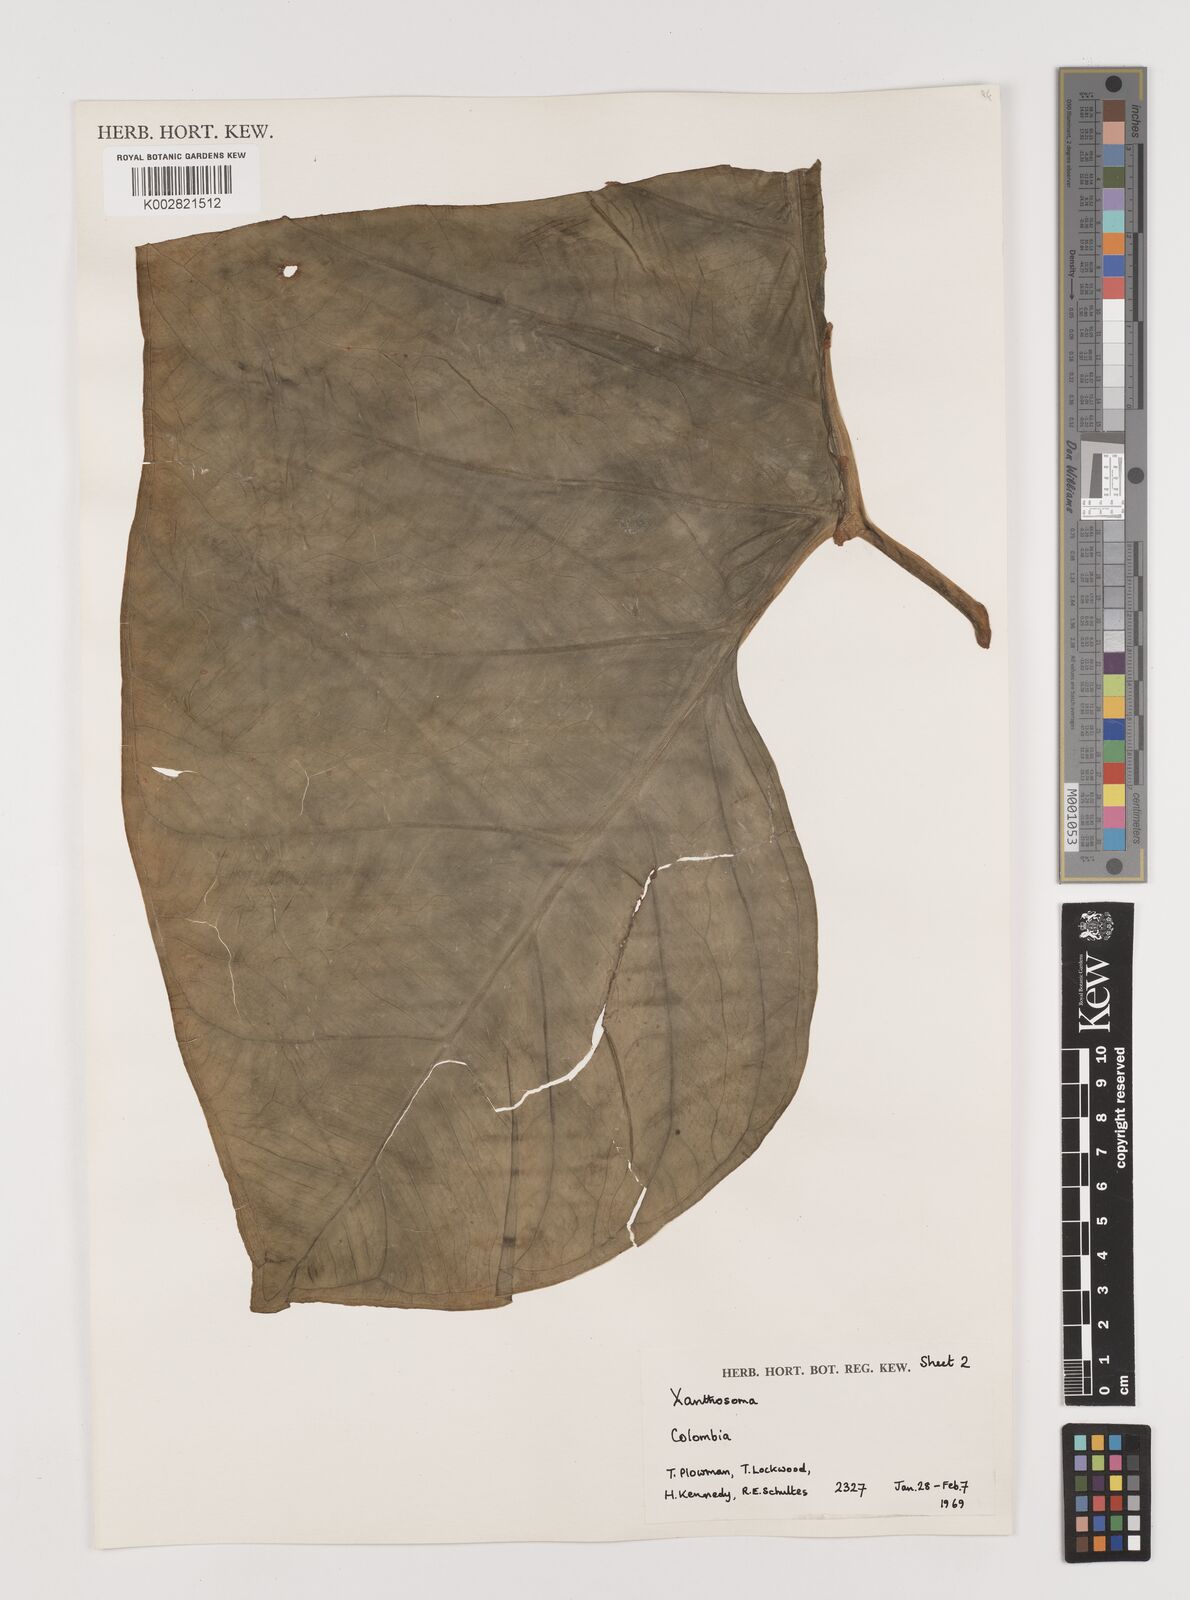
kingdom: Plantae
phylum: Tracheophyta
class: Liliopsida
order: Alismatales
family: Araceae
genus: Xanthosoma
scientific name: Xanthosoma
